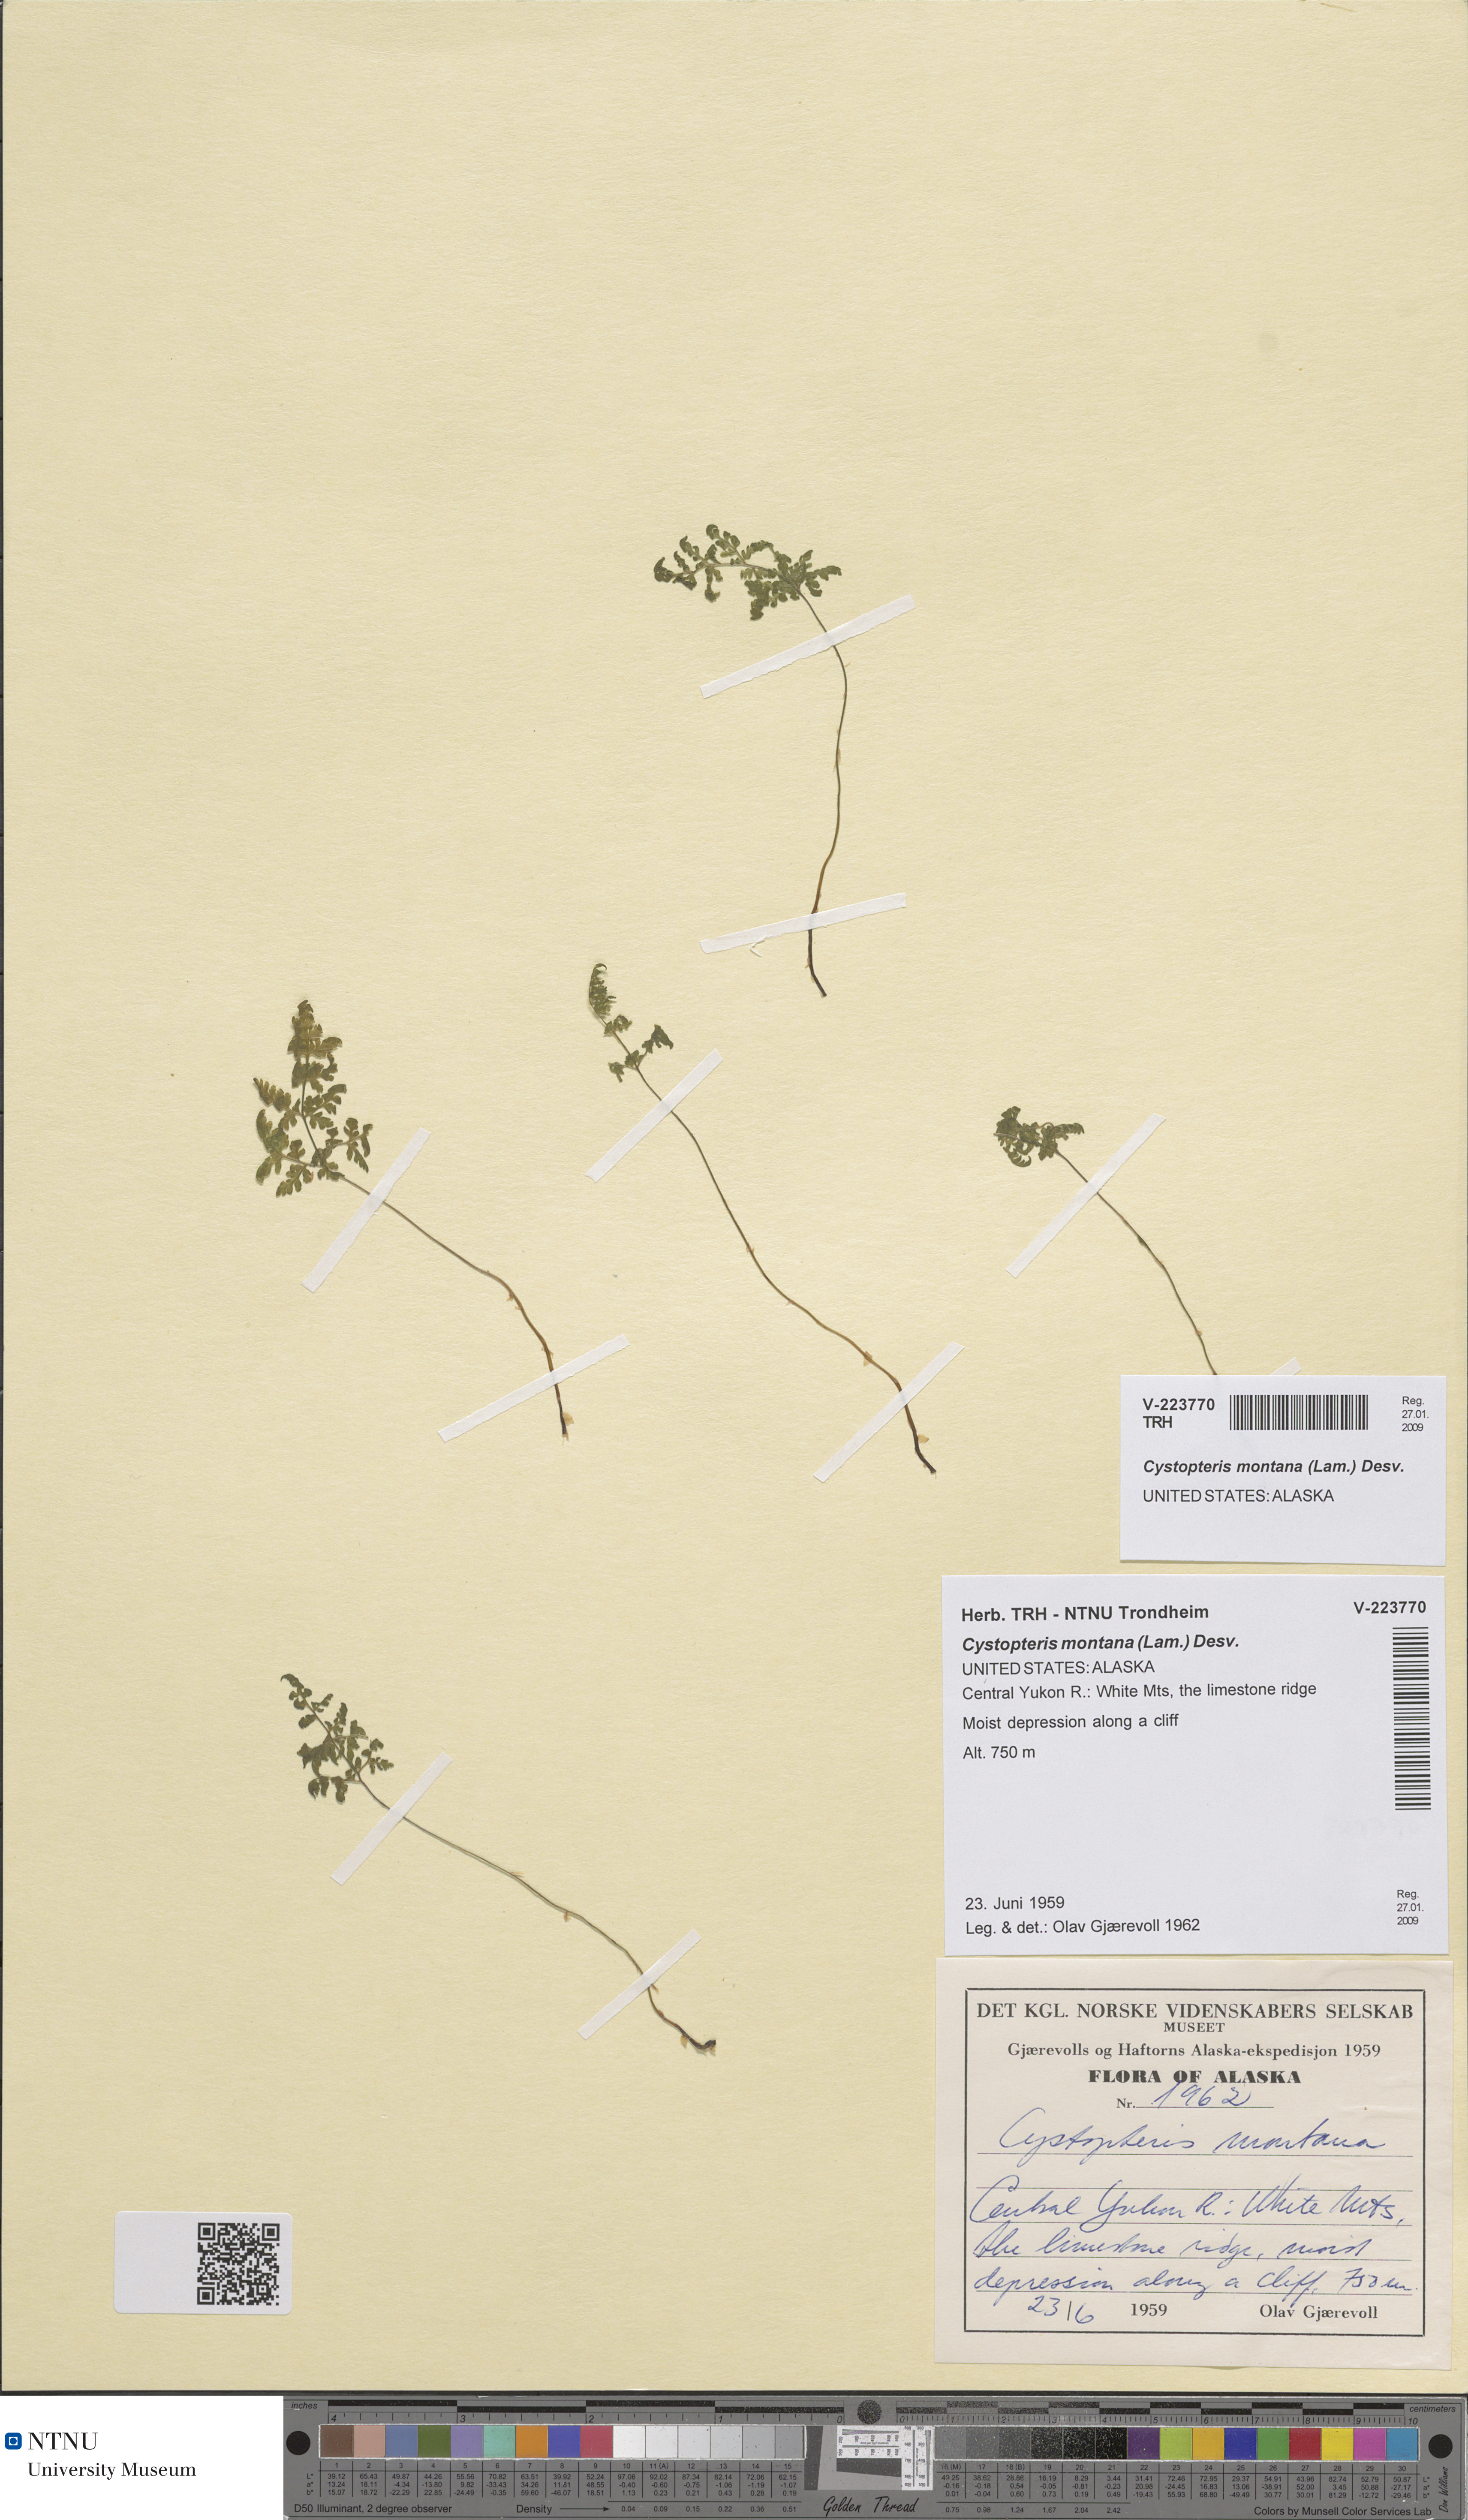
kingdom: Plantae
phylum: Tracheophyta
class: Polypodiopsida
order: Polypodiales
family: Cystopteridaceae
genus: Cystopteris
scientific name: Cystopteris montana
